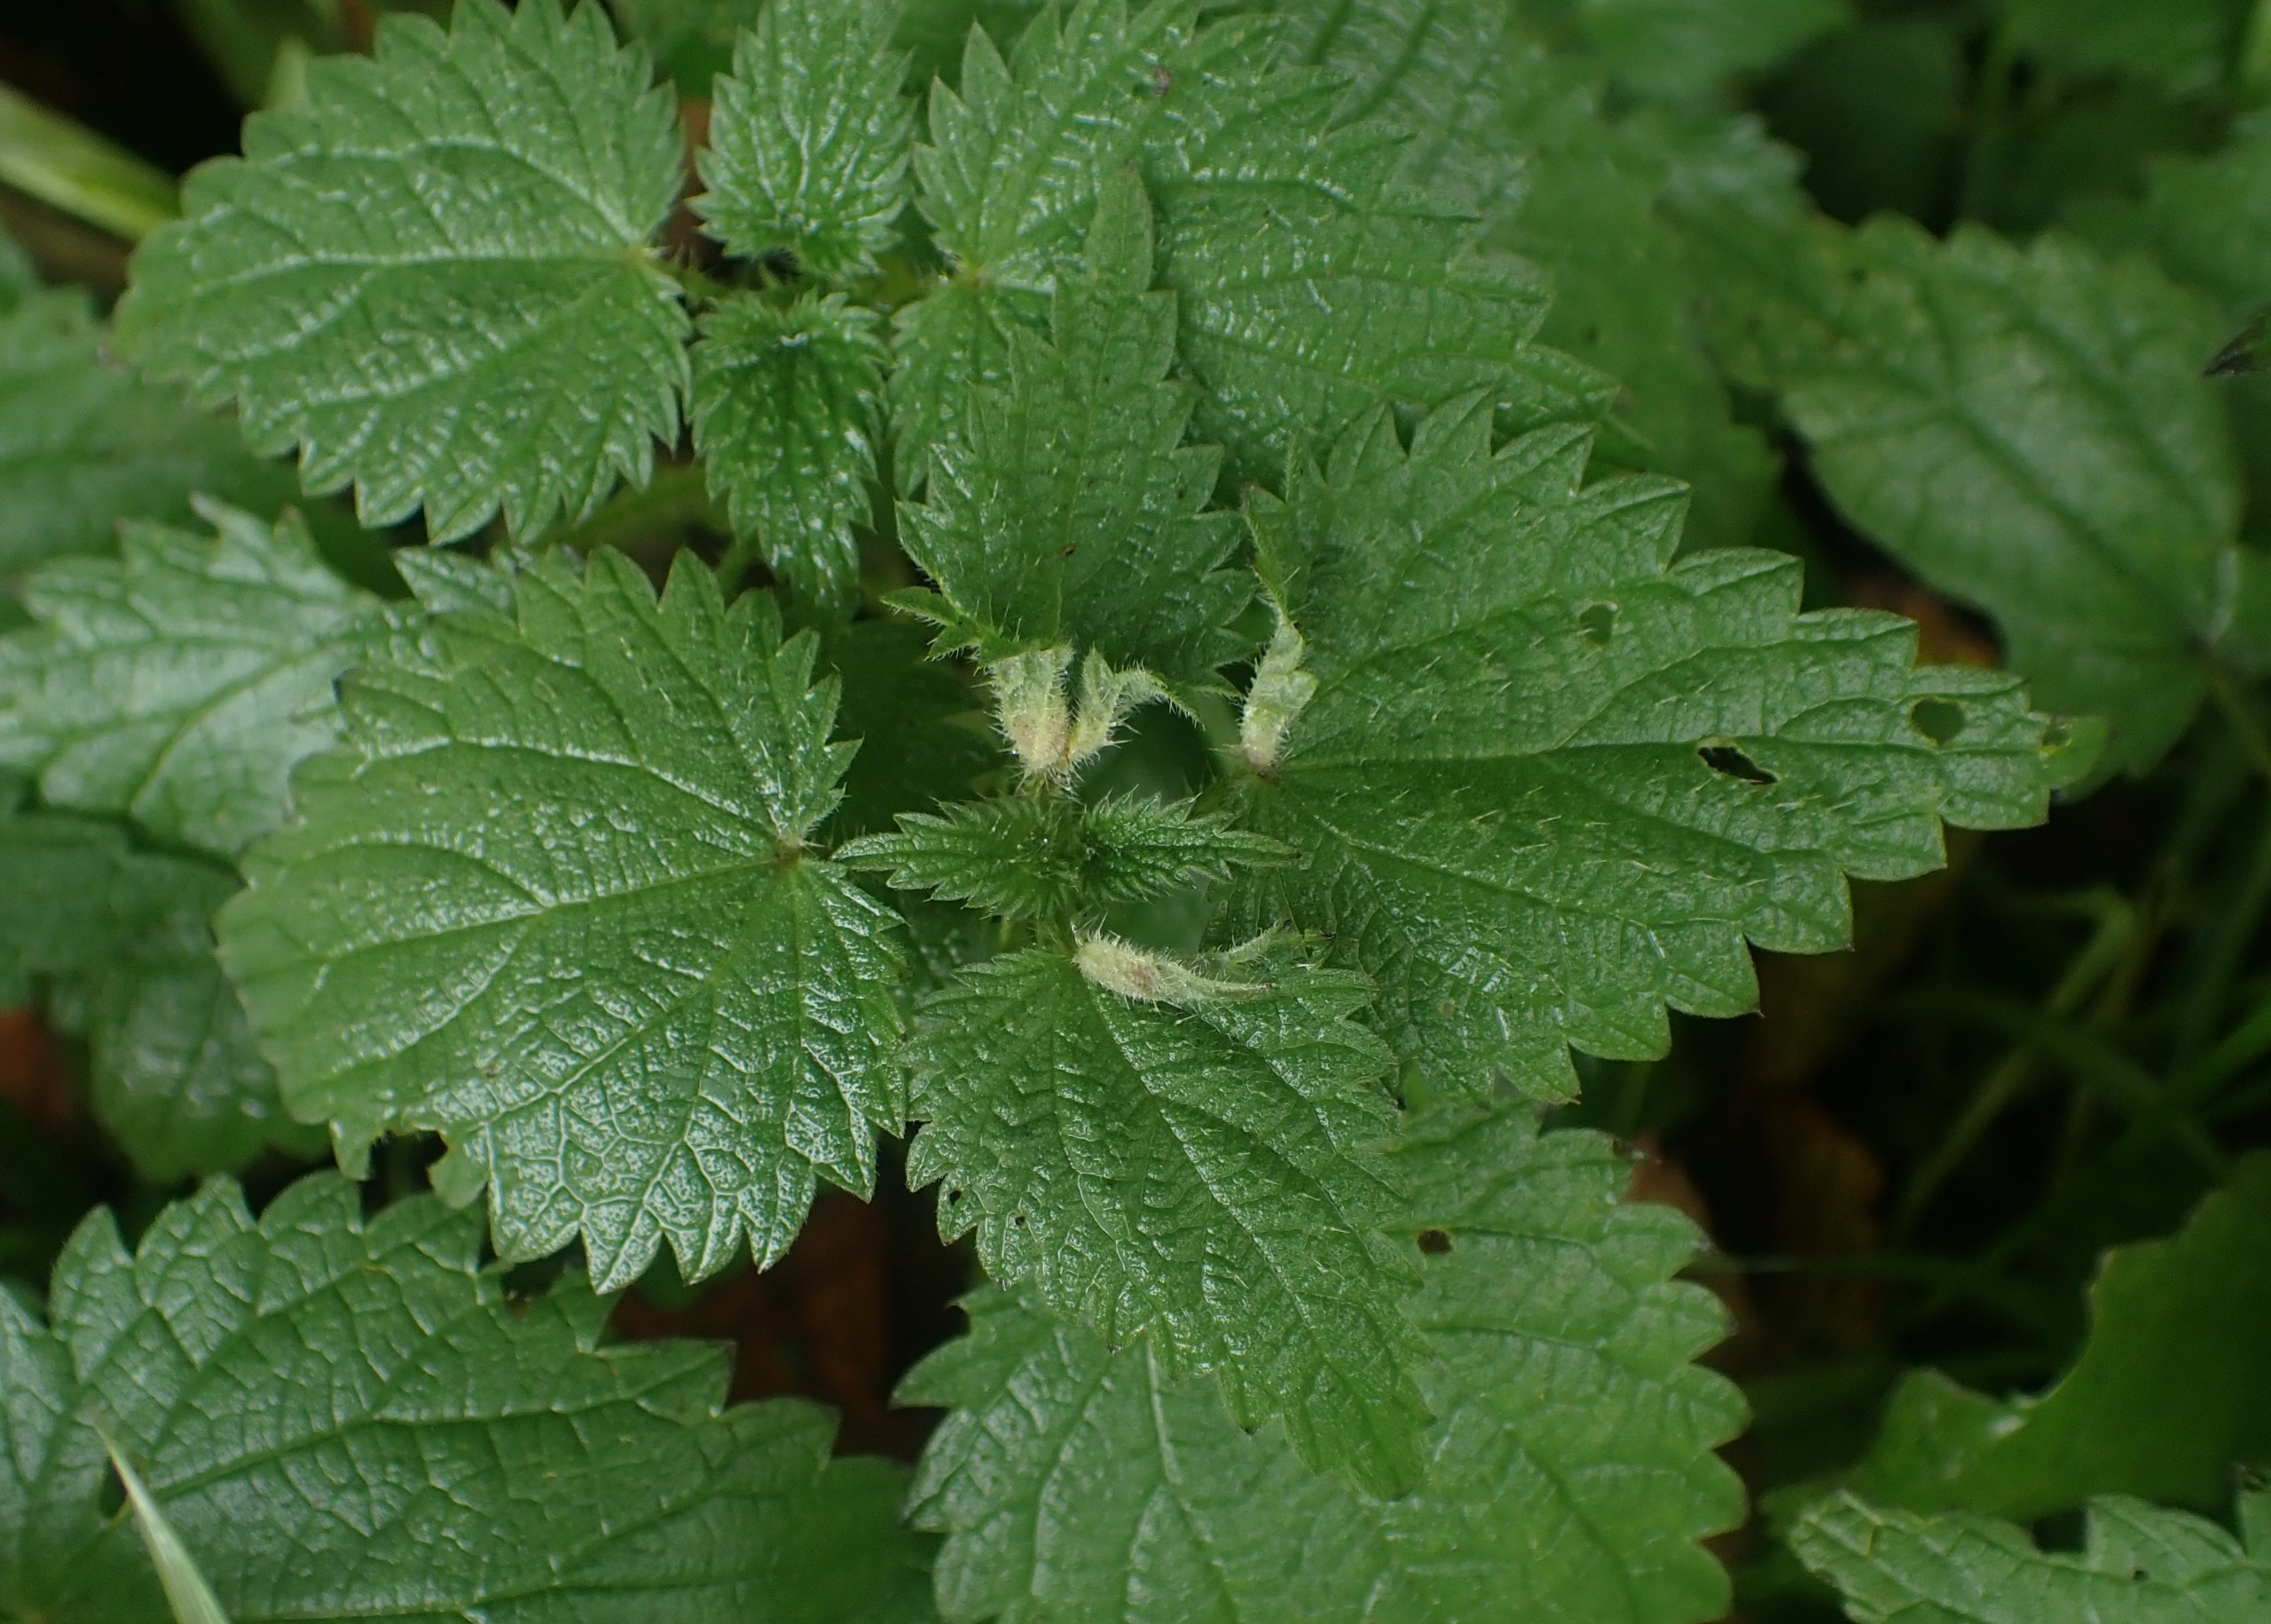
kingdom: Animalia
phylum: Arthropoda
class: Insecta
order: Diptera
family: Cecidomyiidae
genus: Dasineura
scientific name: Dasineura dioicae
